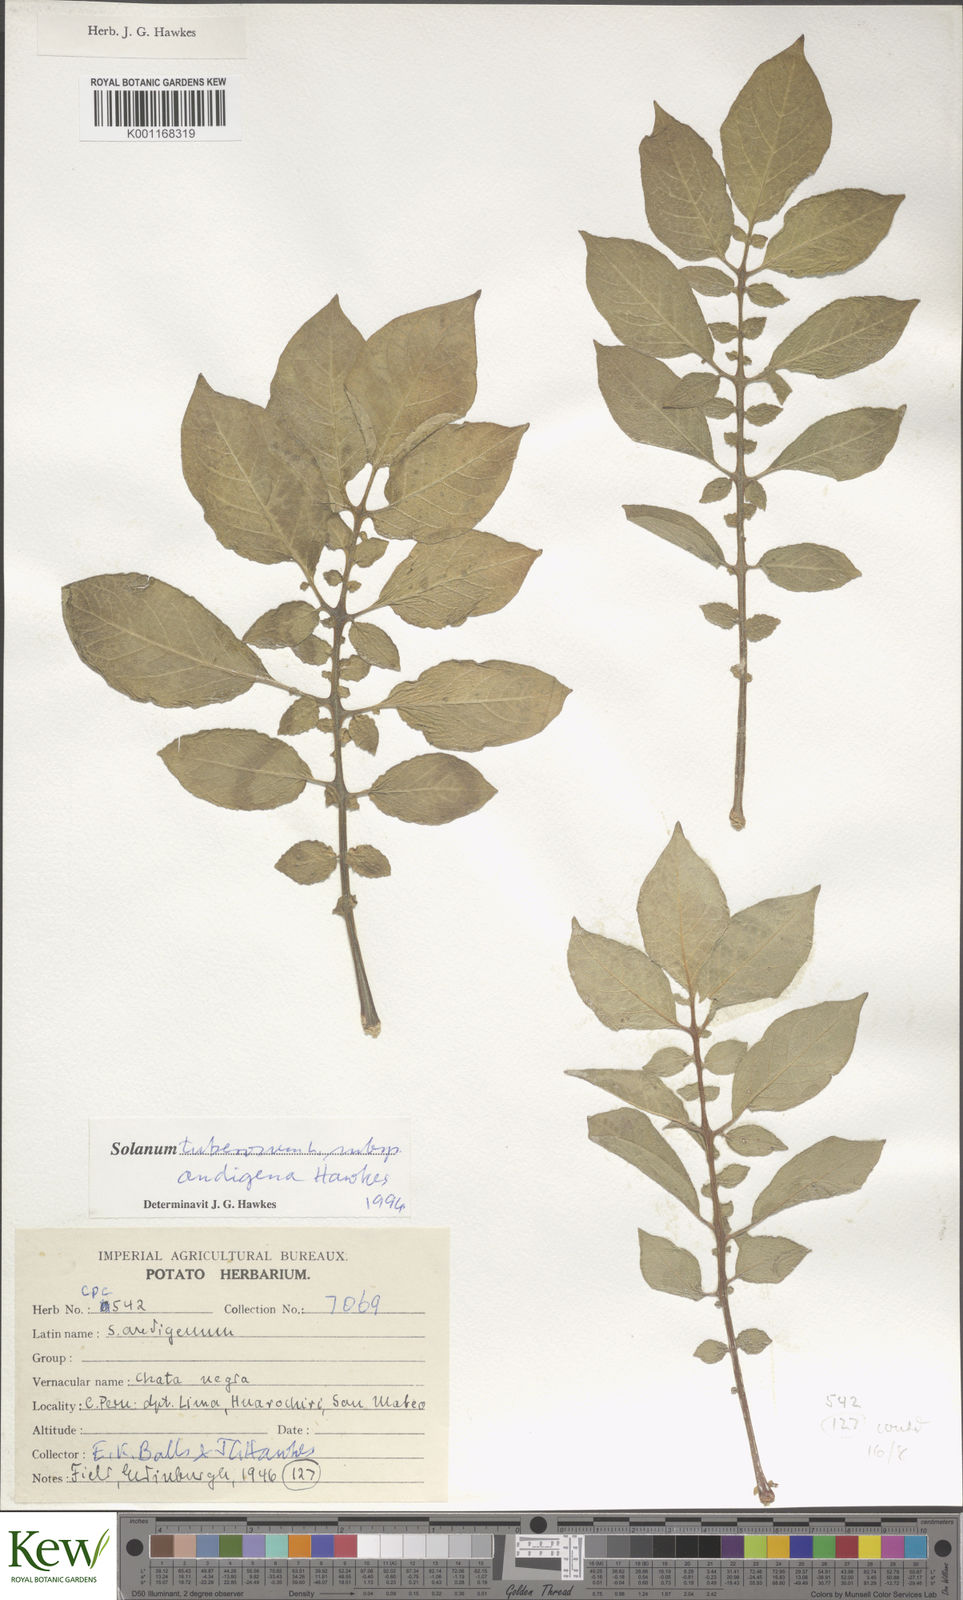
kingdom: Plantae
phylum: Tracheophyta
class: Magnoliopsida
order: Solanales
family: Solanaceae
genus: Solanum
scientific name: Solanum tuberosum
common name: Potato
